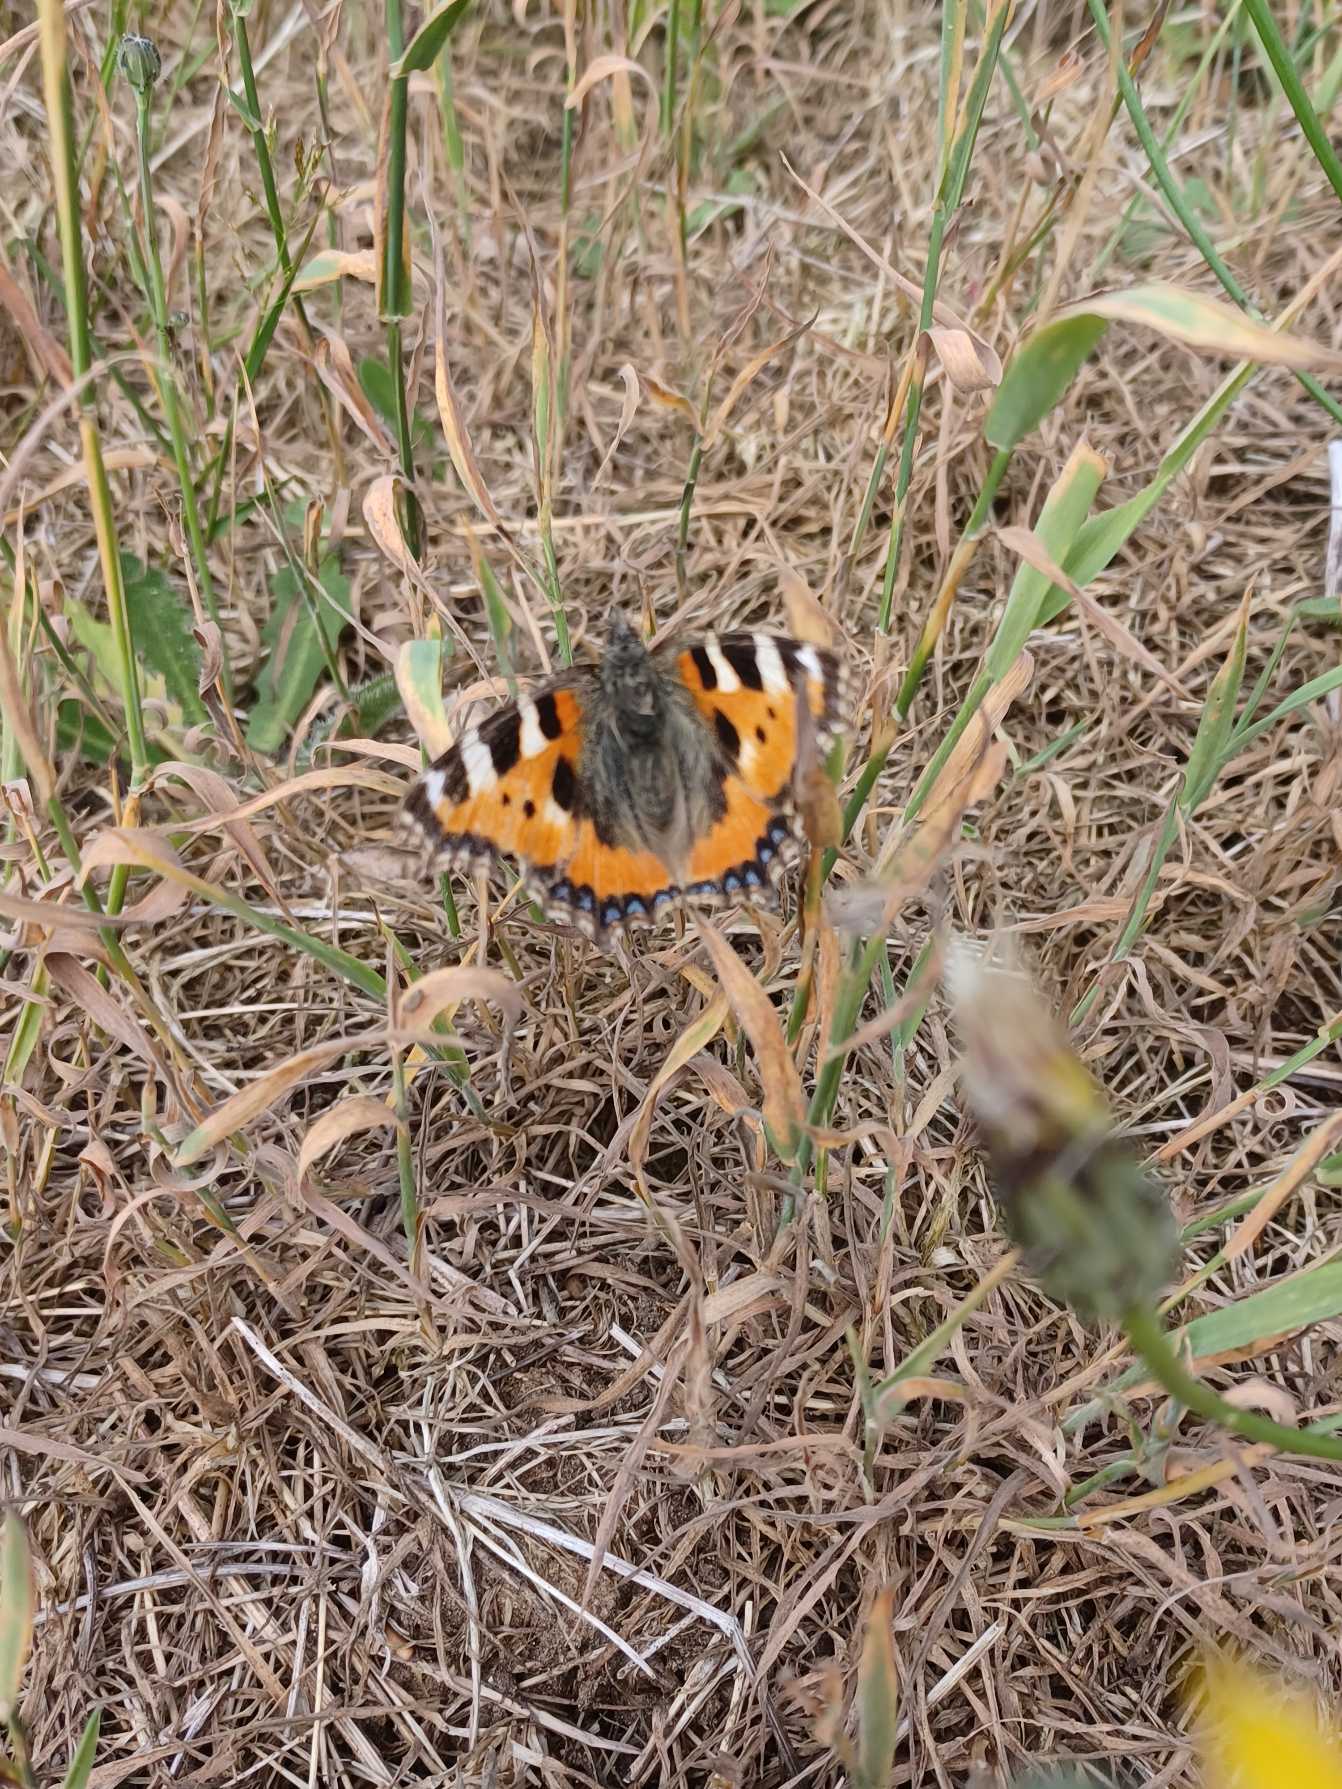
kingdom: Animalia
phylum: Arthropoda
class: Insecta
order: Lepidoptera
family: Nymphalidae
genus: Aglais
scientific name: Aglais urticae
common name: Nældens takvinge
